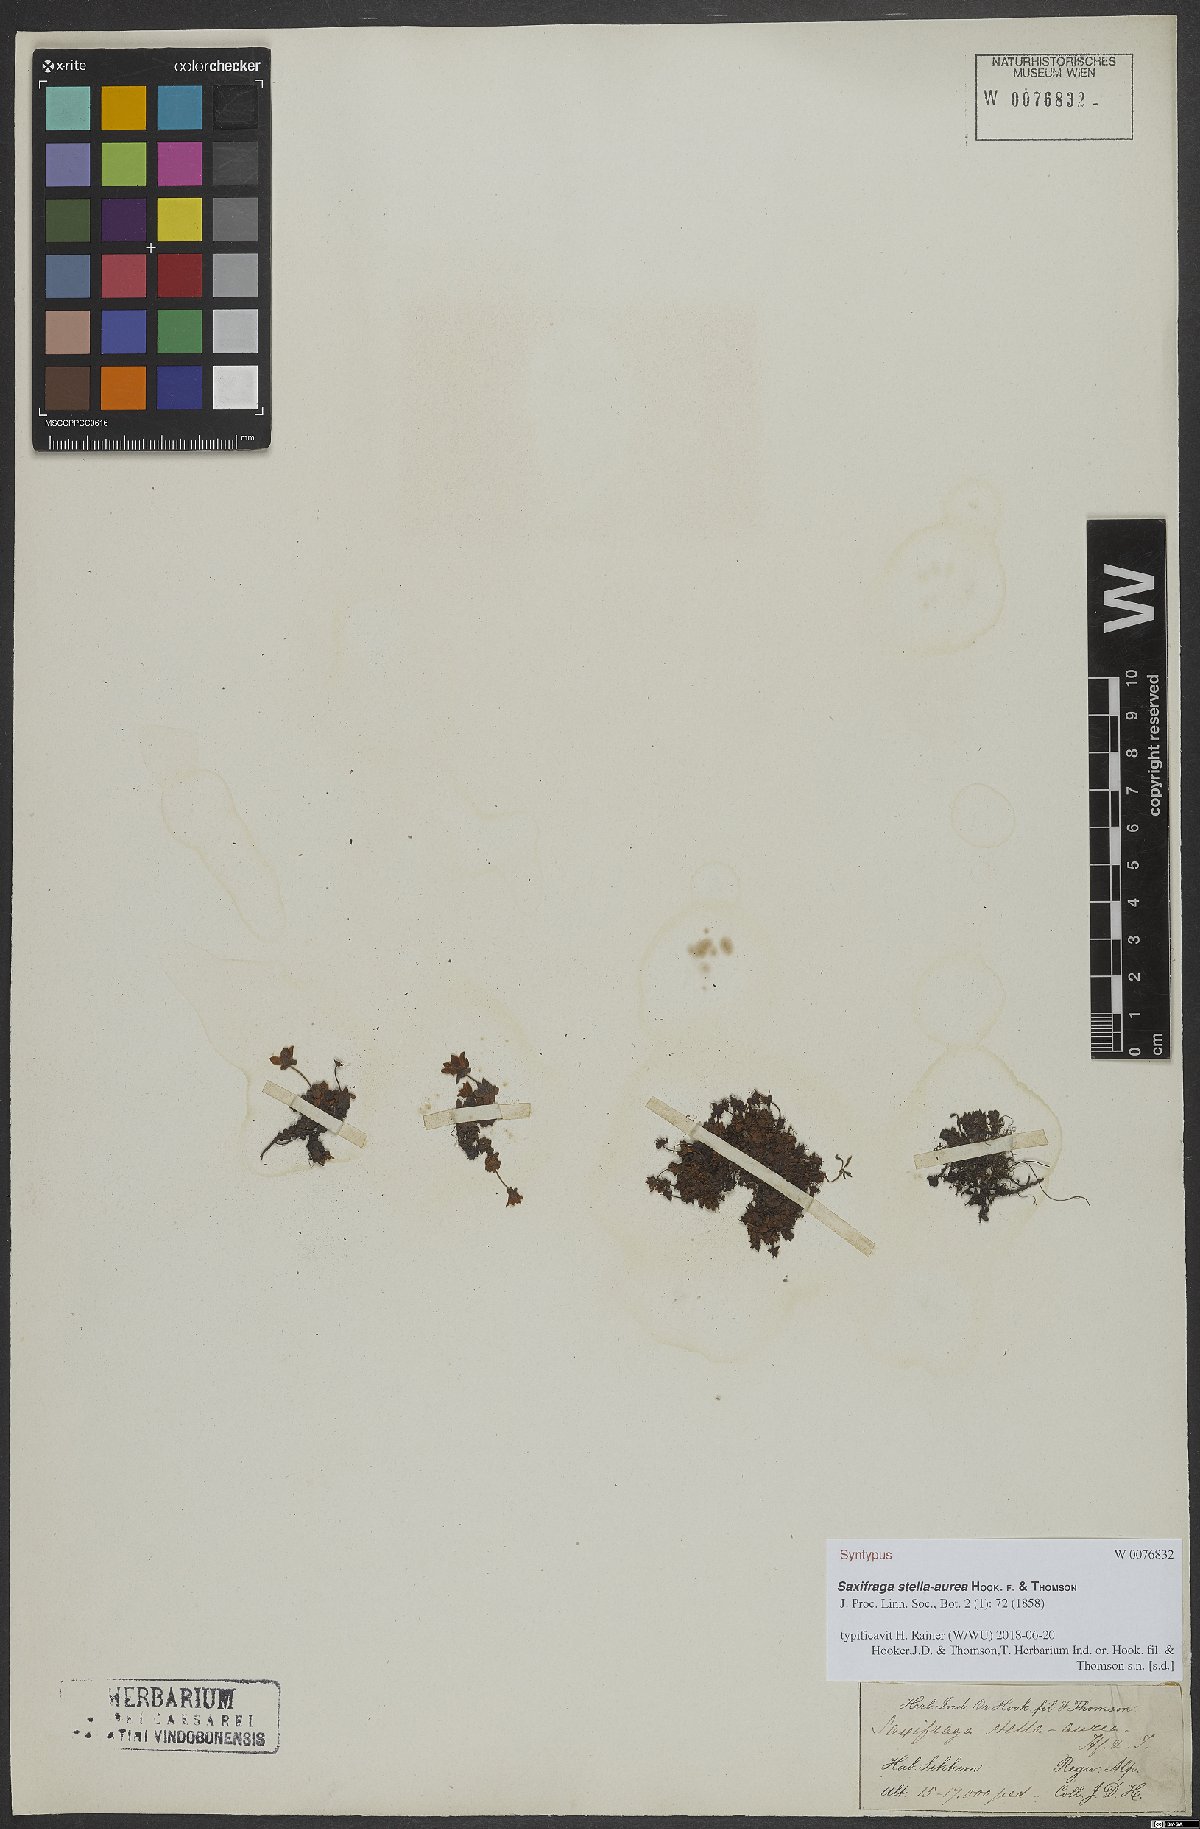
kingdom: Plantae
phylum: Tracheophyta
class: Magnoliopsida
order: Saxifragales
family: Saxifragaceae
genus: Saxifraga
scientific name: Saxifraga stella-aurea
